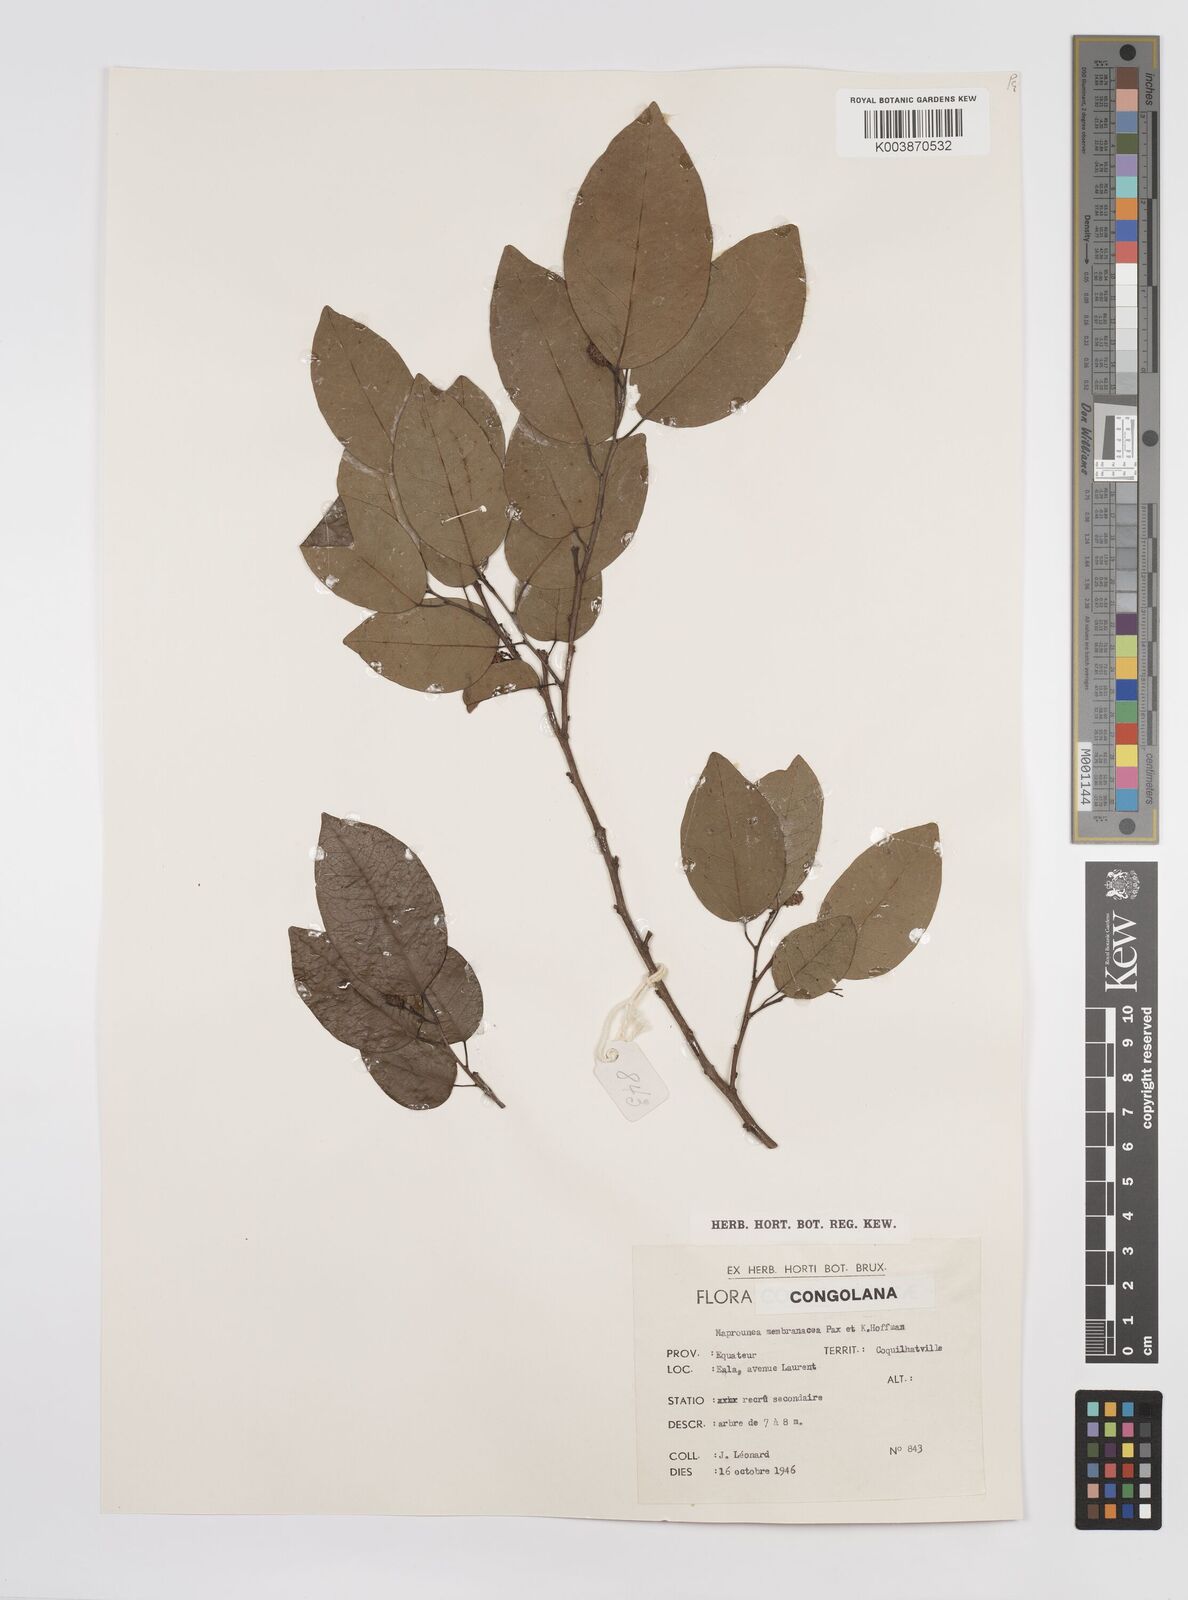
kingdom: Plantae
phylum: Tracheophyta
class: Magnoliopsida
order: Malpighiales
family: Euphorbiaceae
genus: Maprounea
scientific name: Maprounea membranacea
